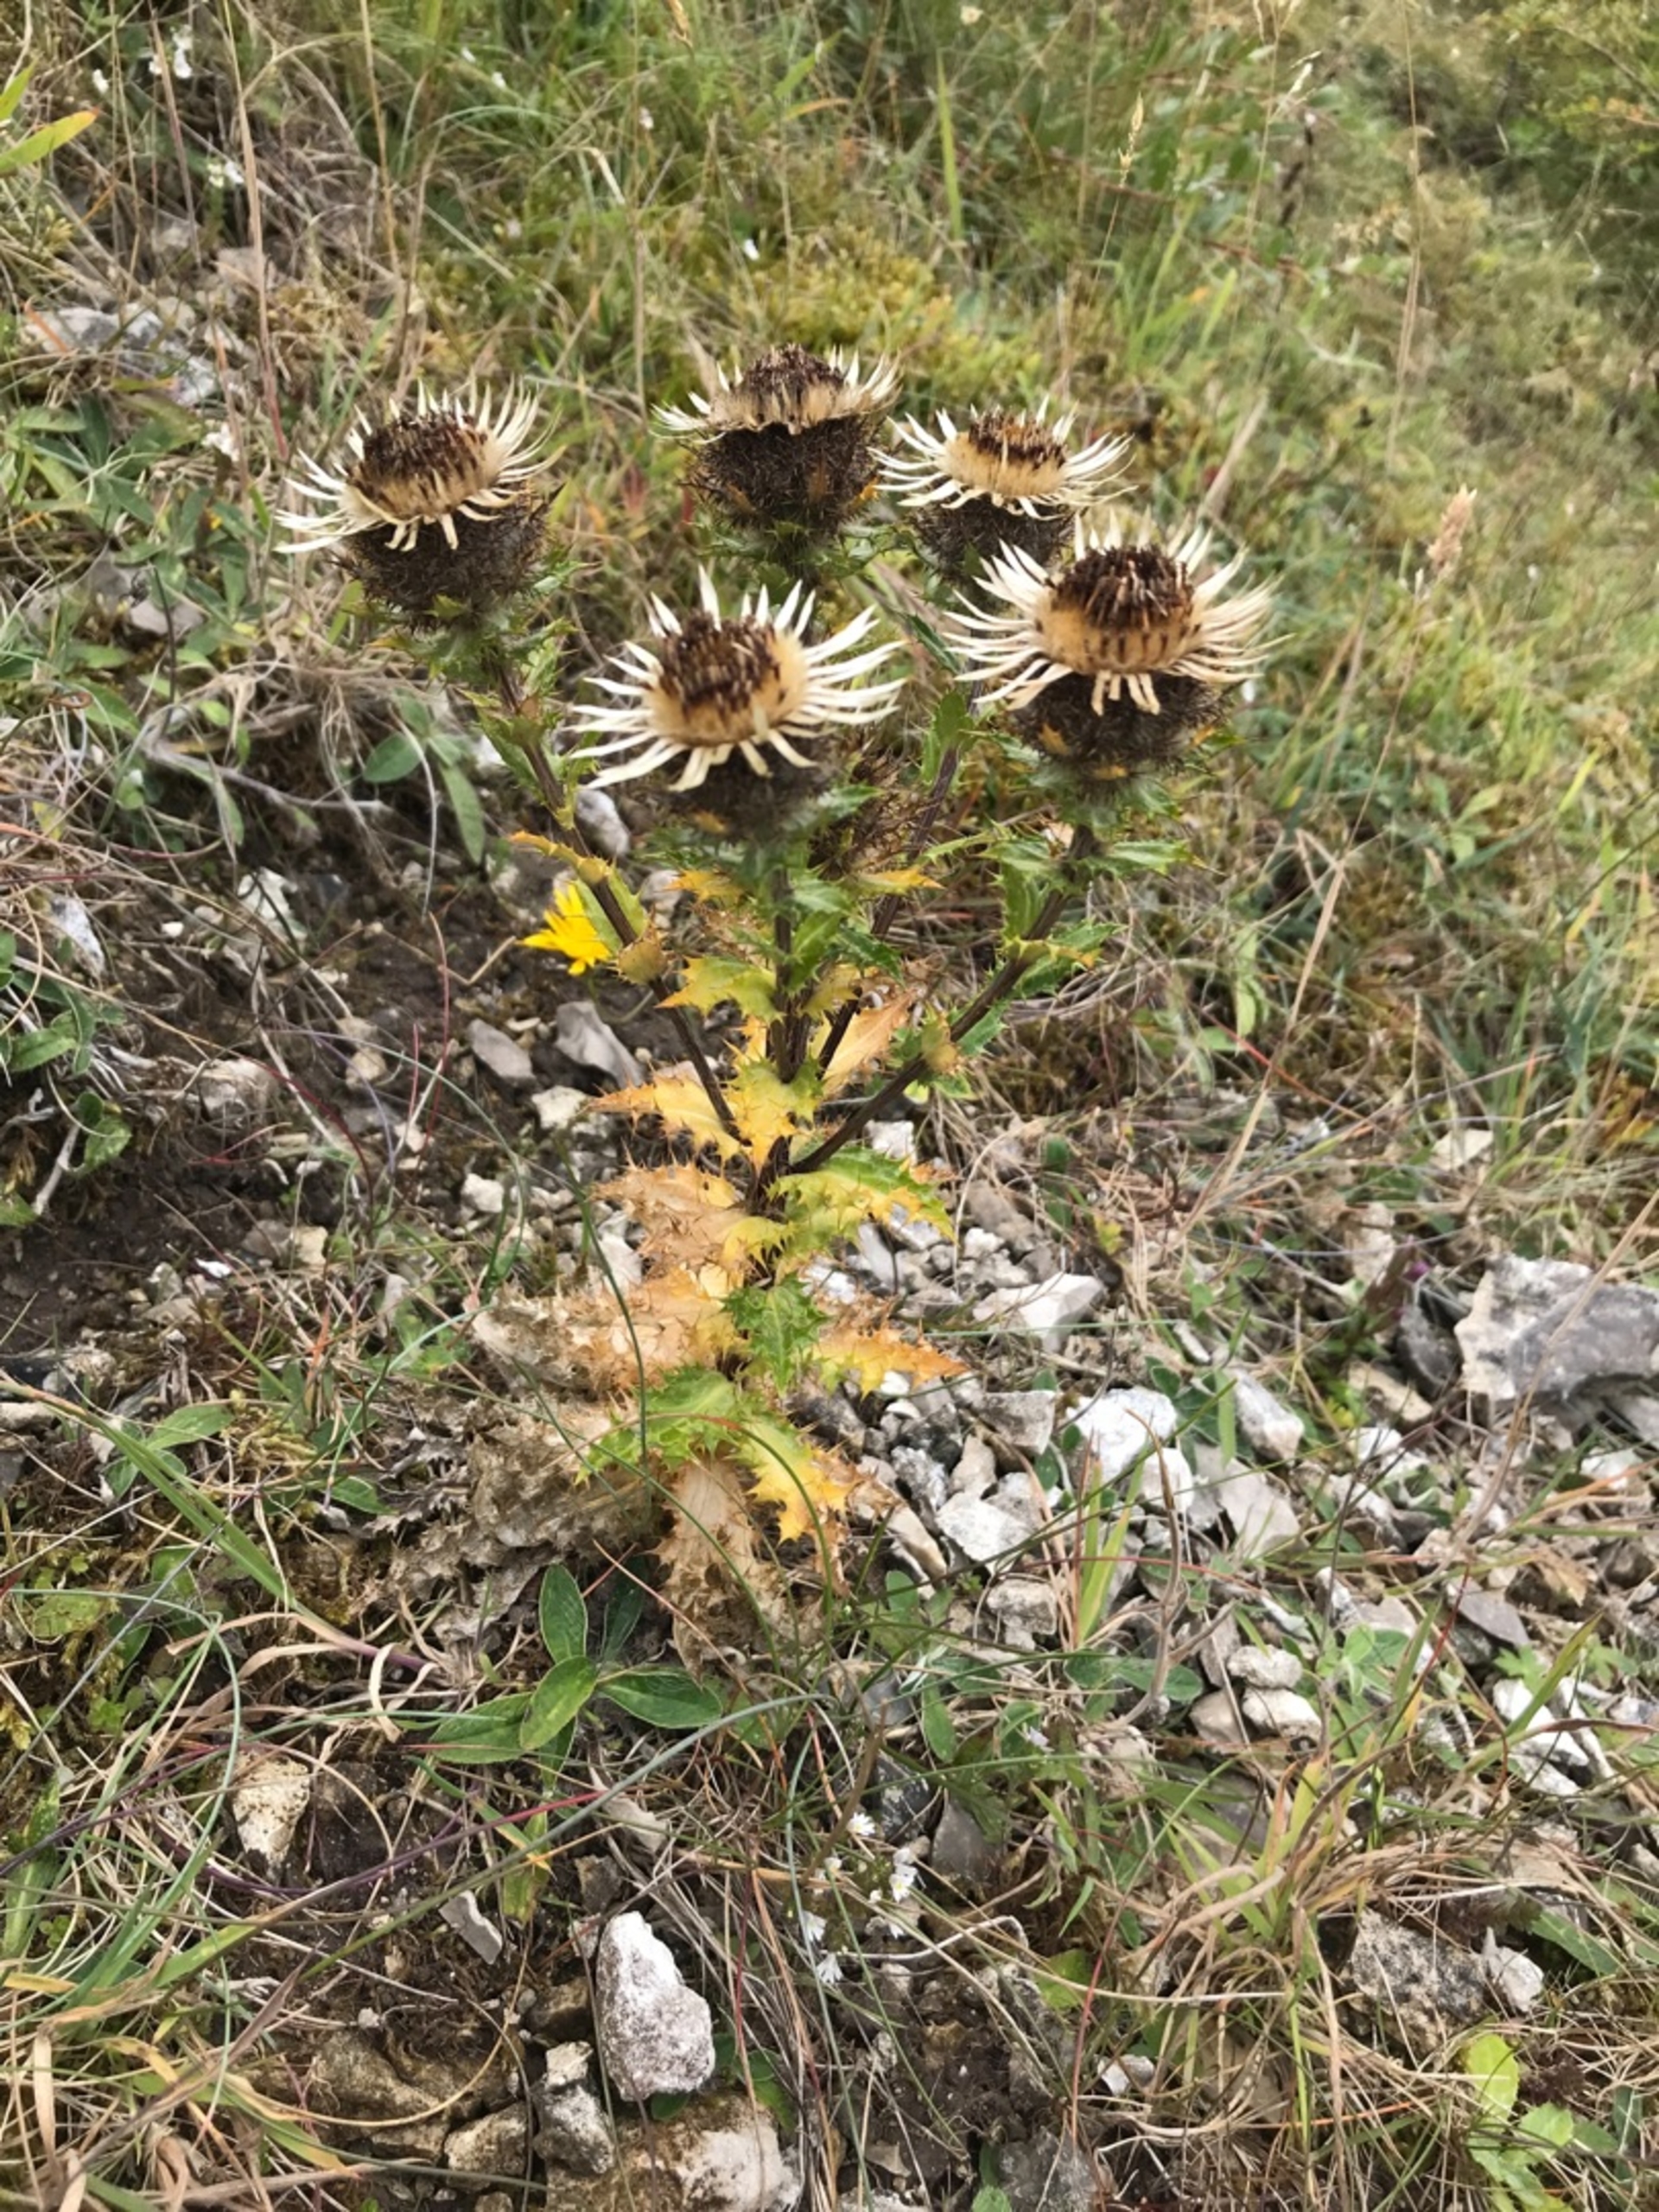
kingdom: Plantae
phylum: Tracheophyta
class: Magnoliopsida
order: Asterales
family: Asteraceae
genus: Carlina
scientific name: Carlina vulgaris
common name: Bakketidsel
